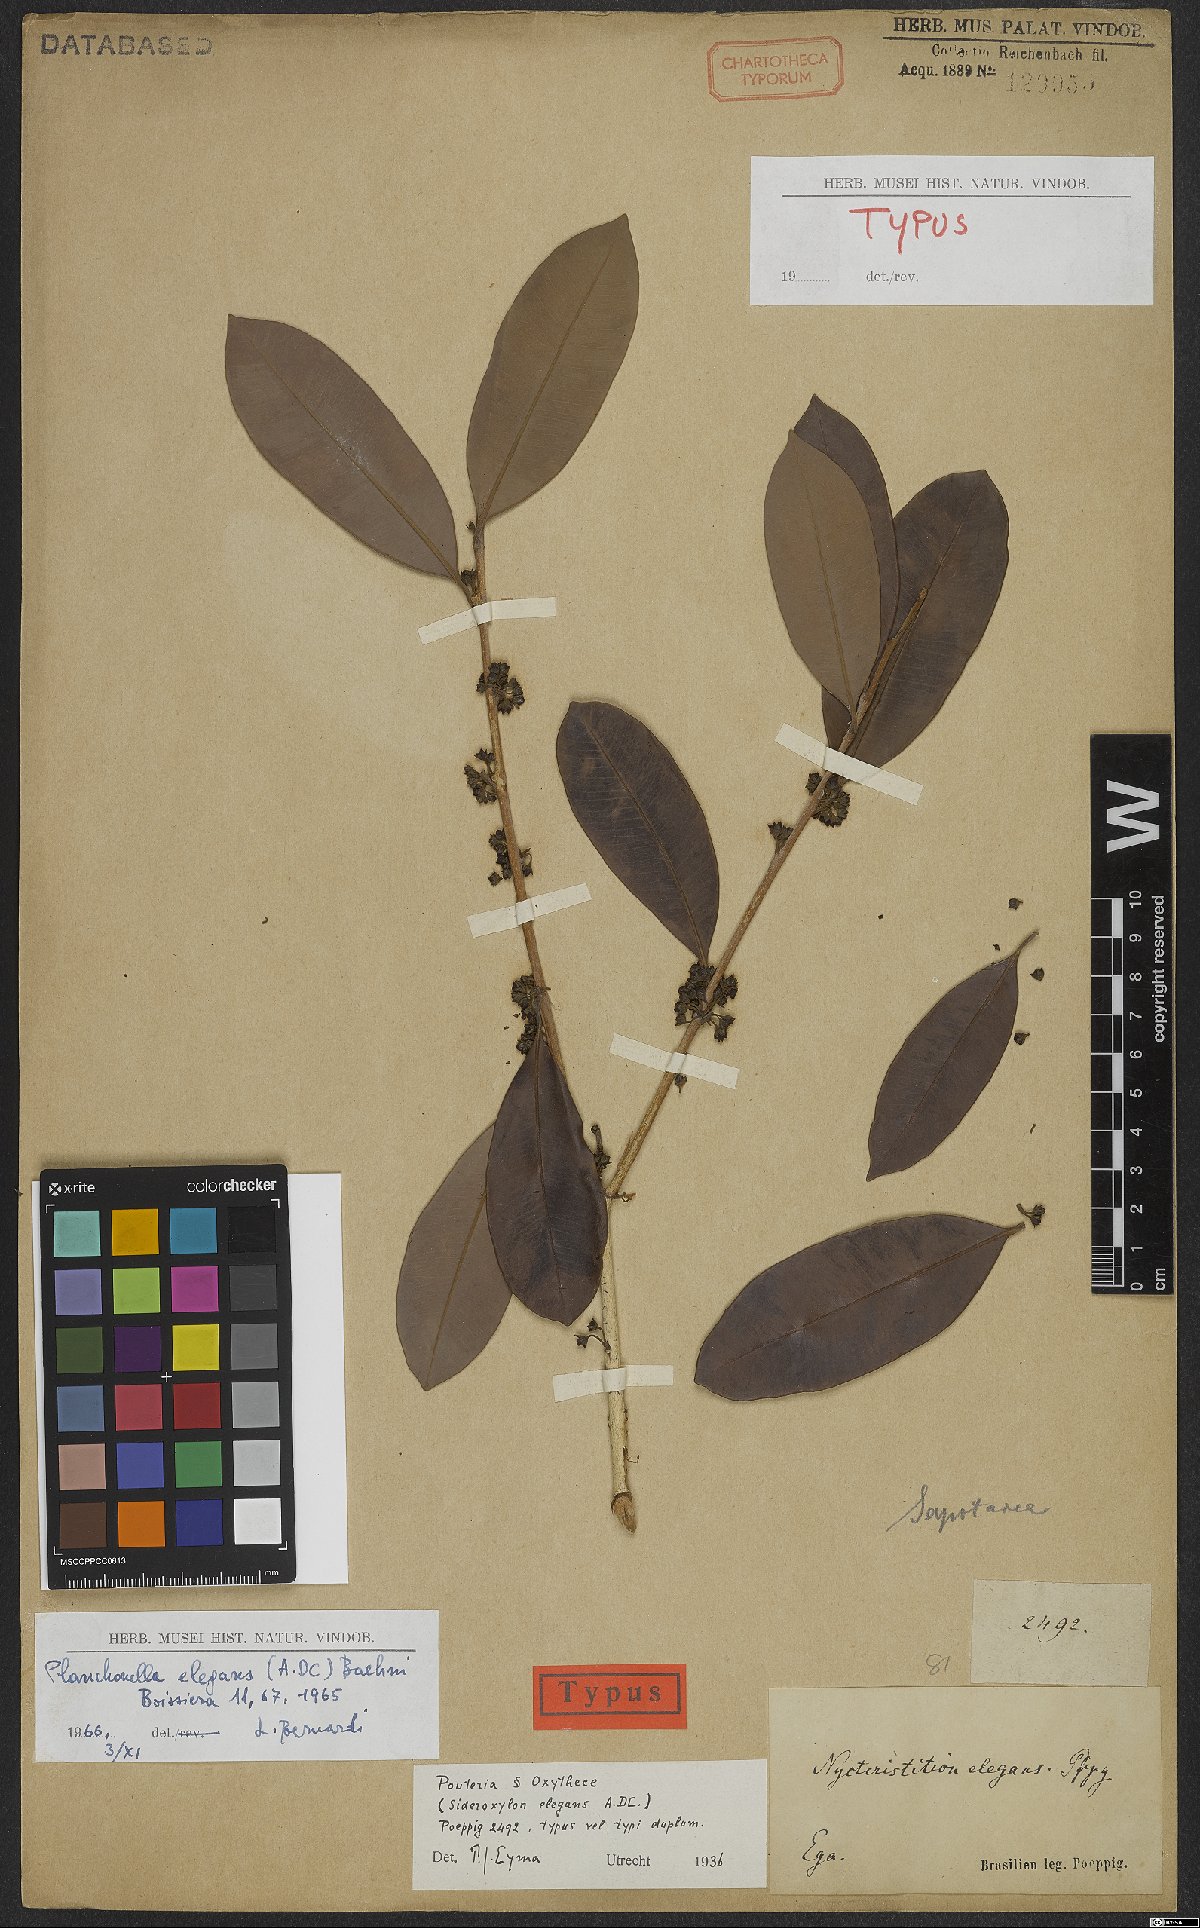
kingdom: Plantae
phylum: Tracheophyta
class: Magnoliopsida
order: Ericales
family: Sapotaceae
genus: Pouteria
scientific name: Pouteria elegans
